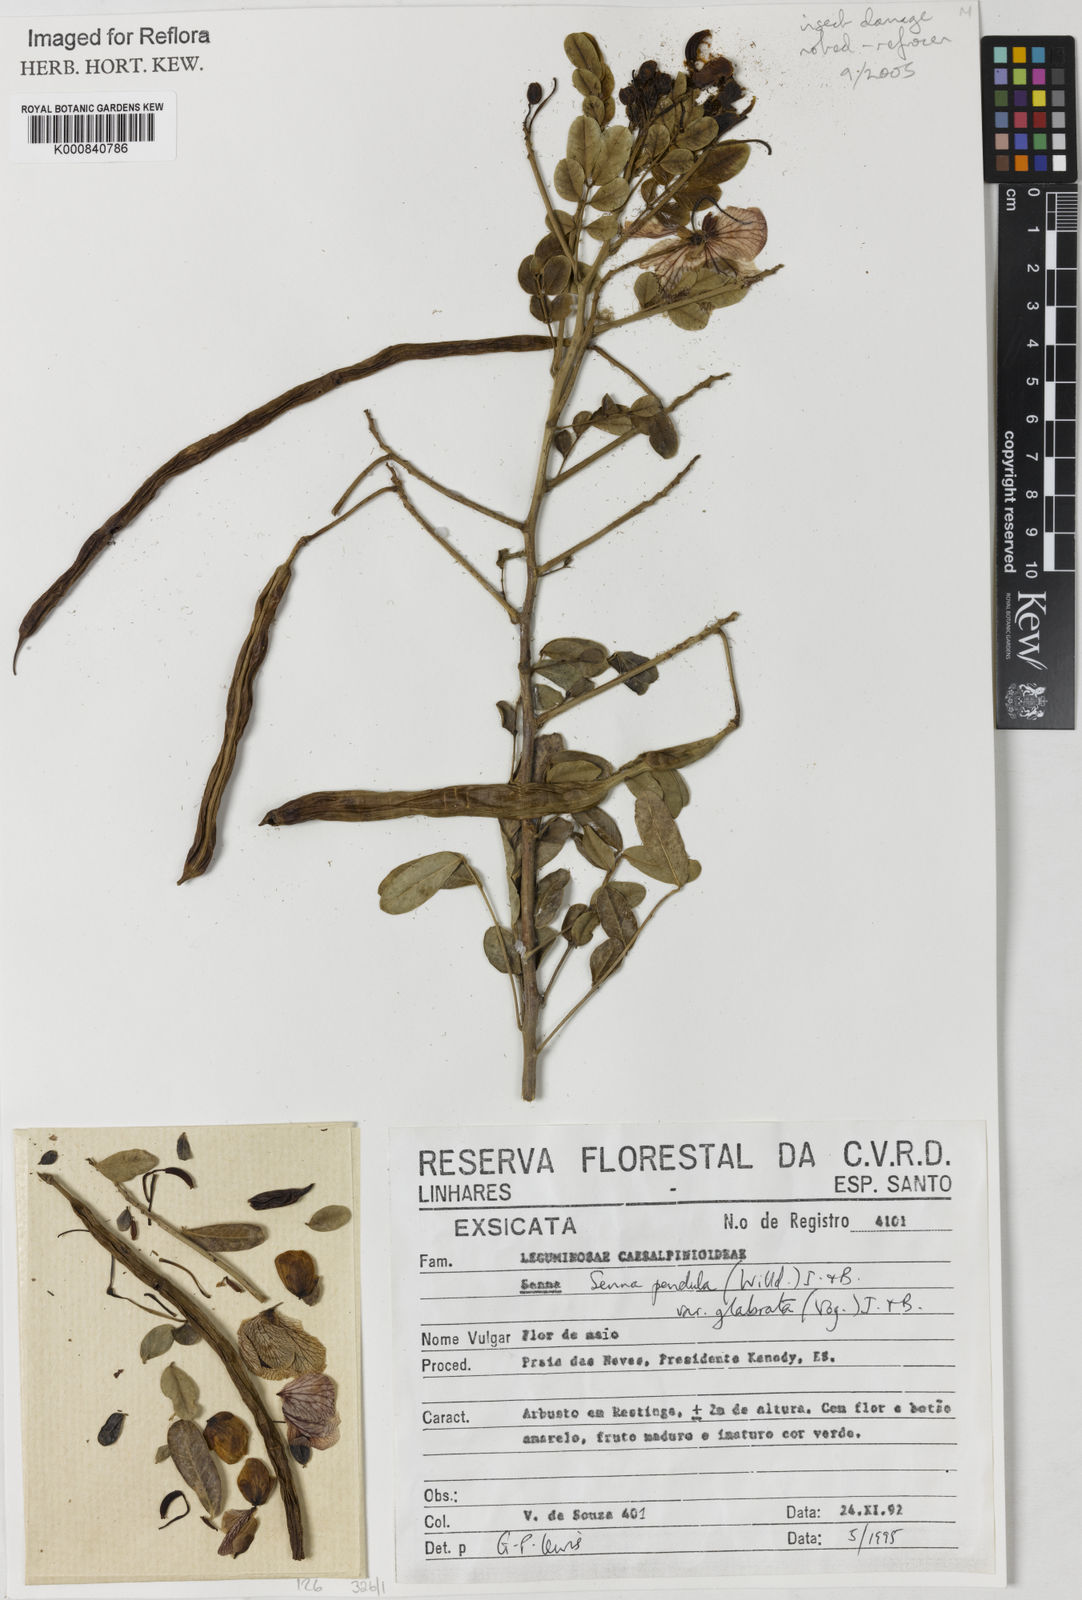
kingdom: Plantae
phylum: Tracheophyta
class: Magnoliopsida
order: Fabales
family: Fabaceae
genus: Senna
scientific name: Senna pendula
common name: Easter cassia
